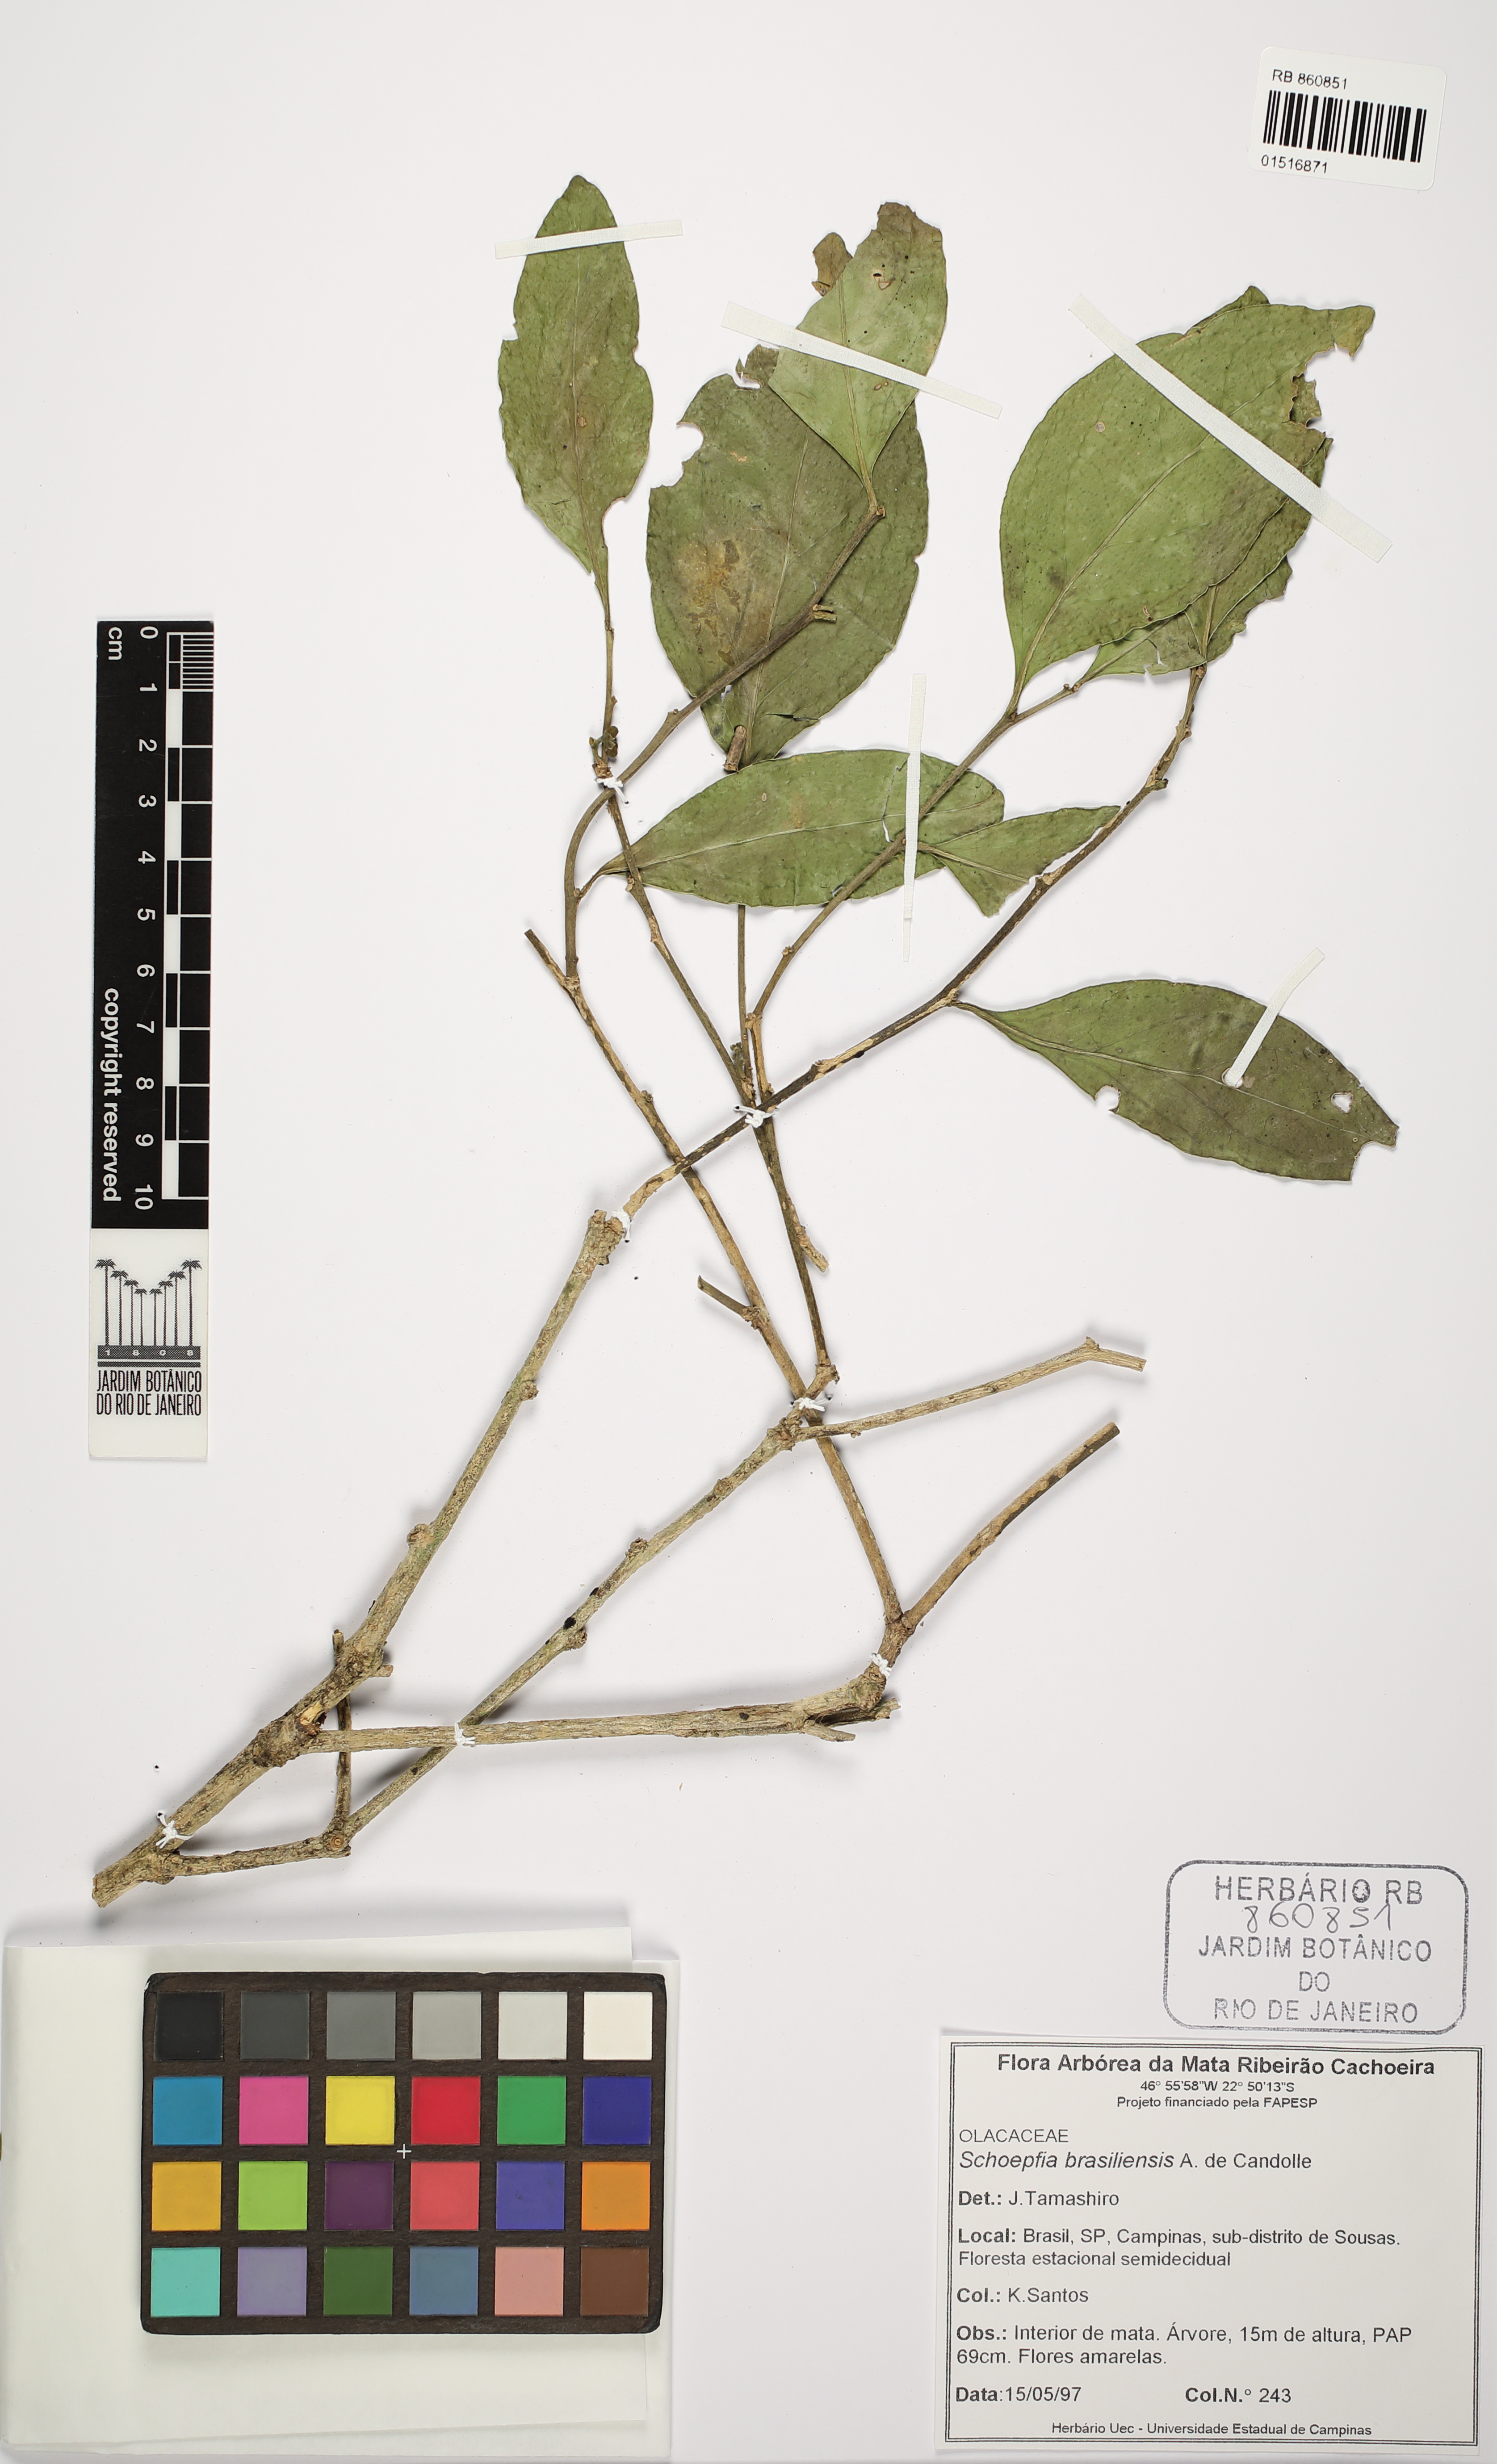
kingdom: Plantae
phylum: Tracheophyta
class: Magnoliopsida
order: Santalales
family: Schoepfiaceae
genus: Schoepfia
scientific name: Schoepfia brasiliensis
